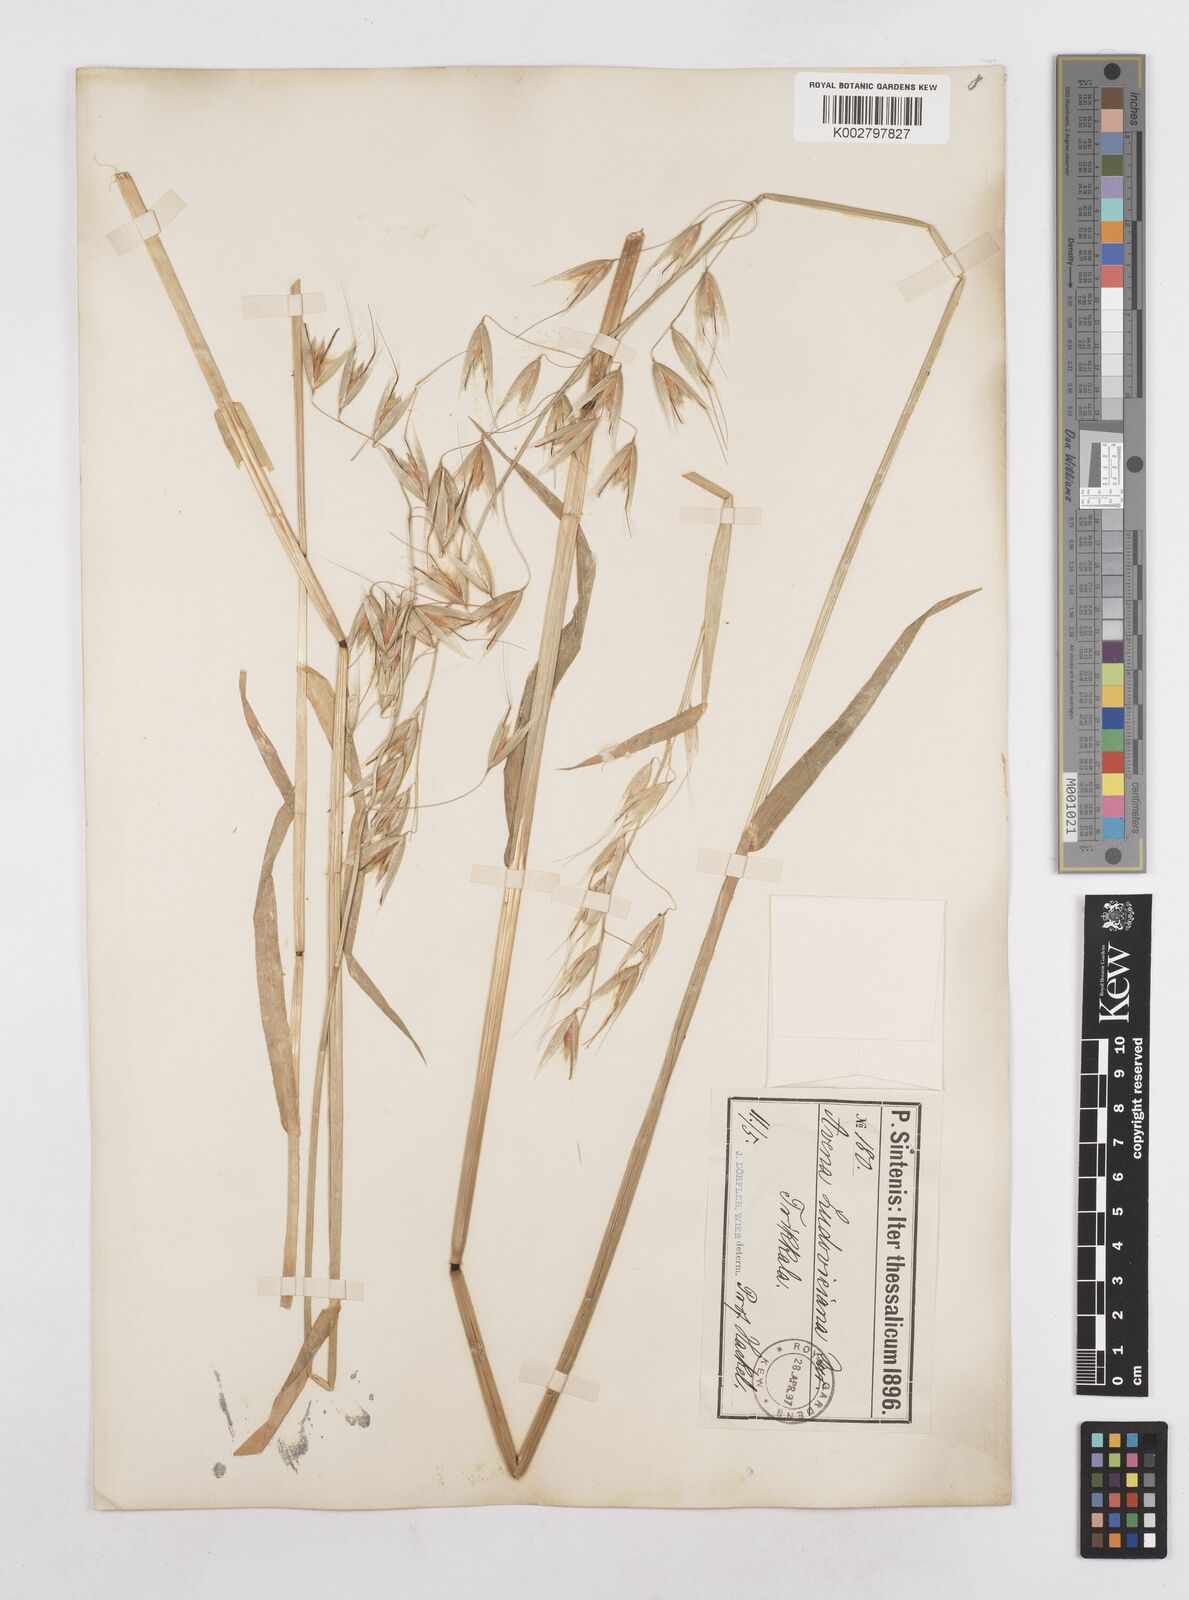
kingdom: Plantae
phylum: Tracheophyta
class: Liliopsida
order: Poales
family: Poaceae
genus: Avena
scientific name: Avena sterilis
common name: Animated oat
